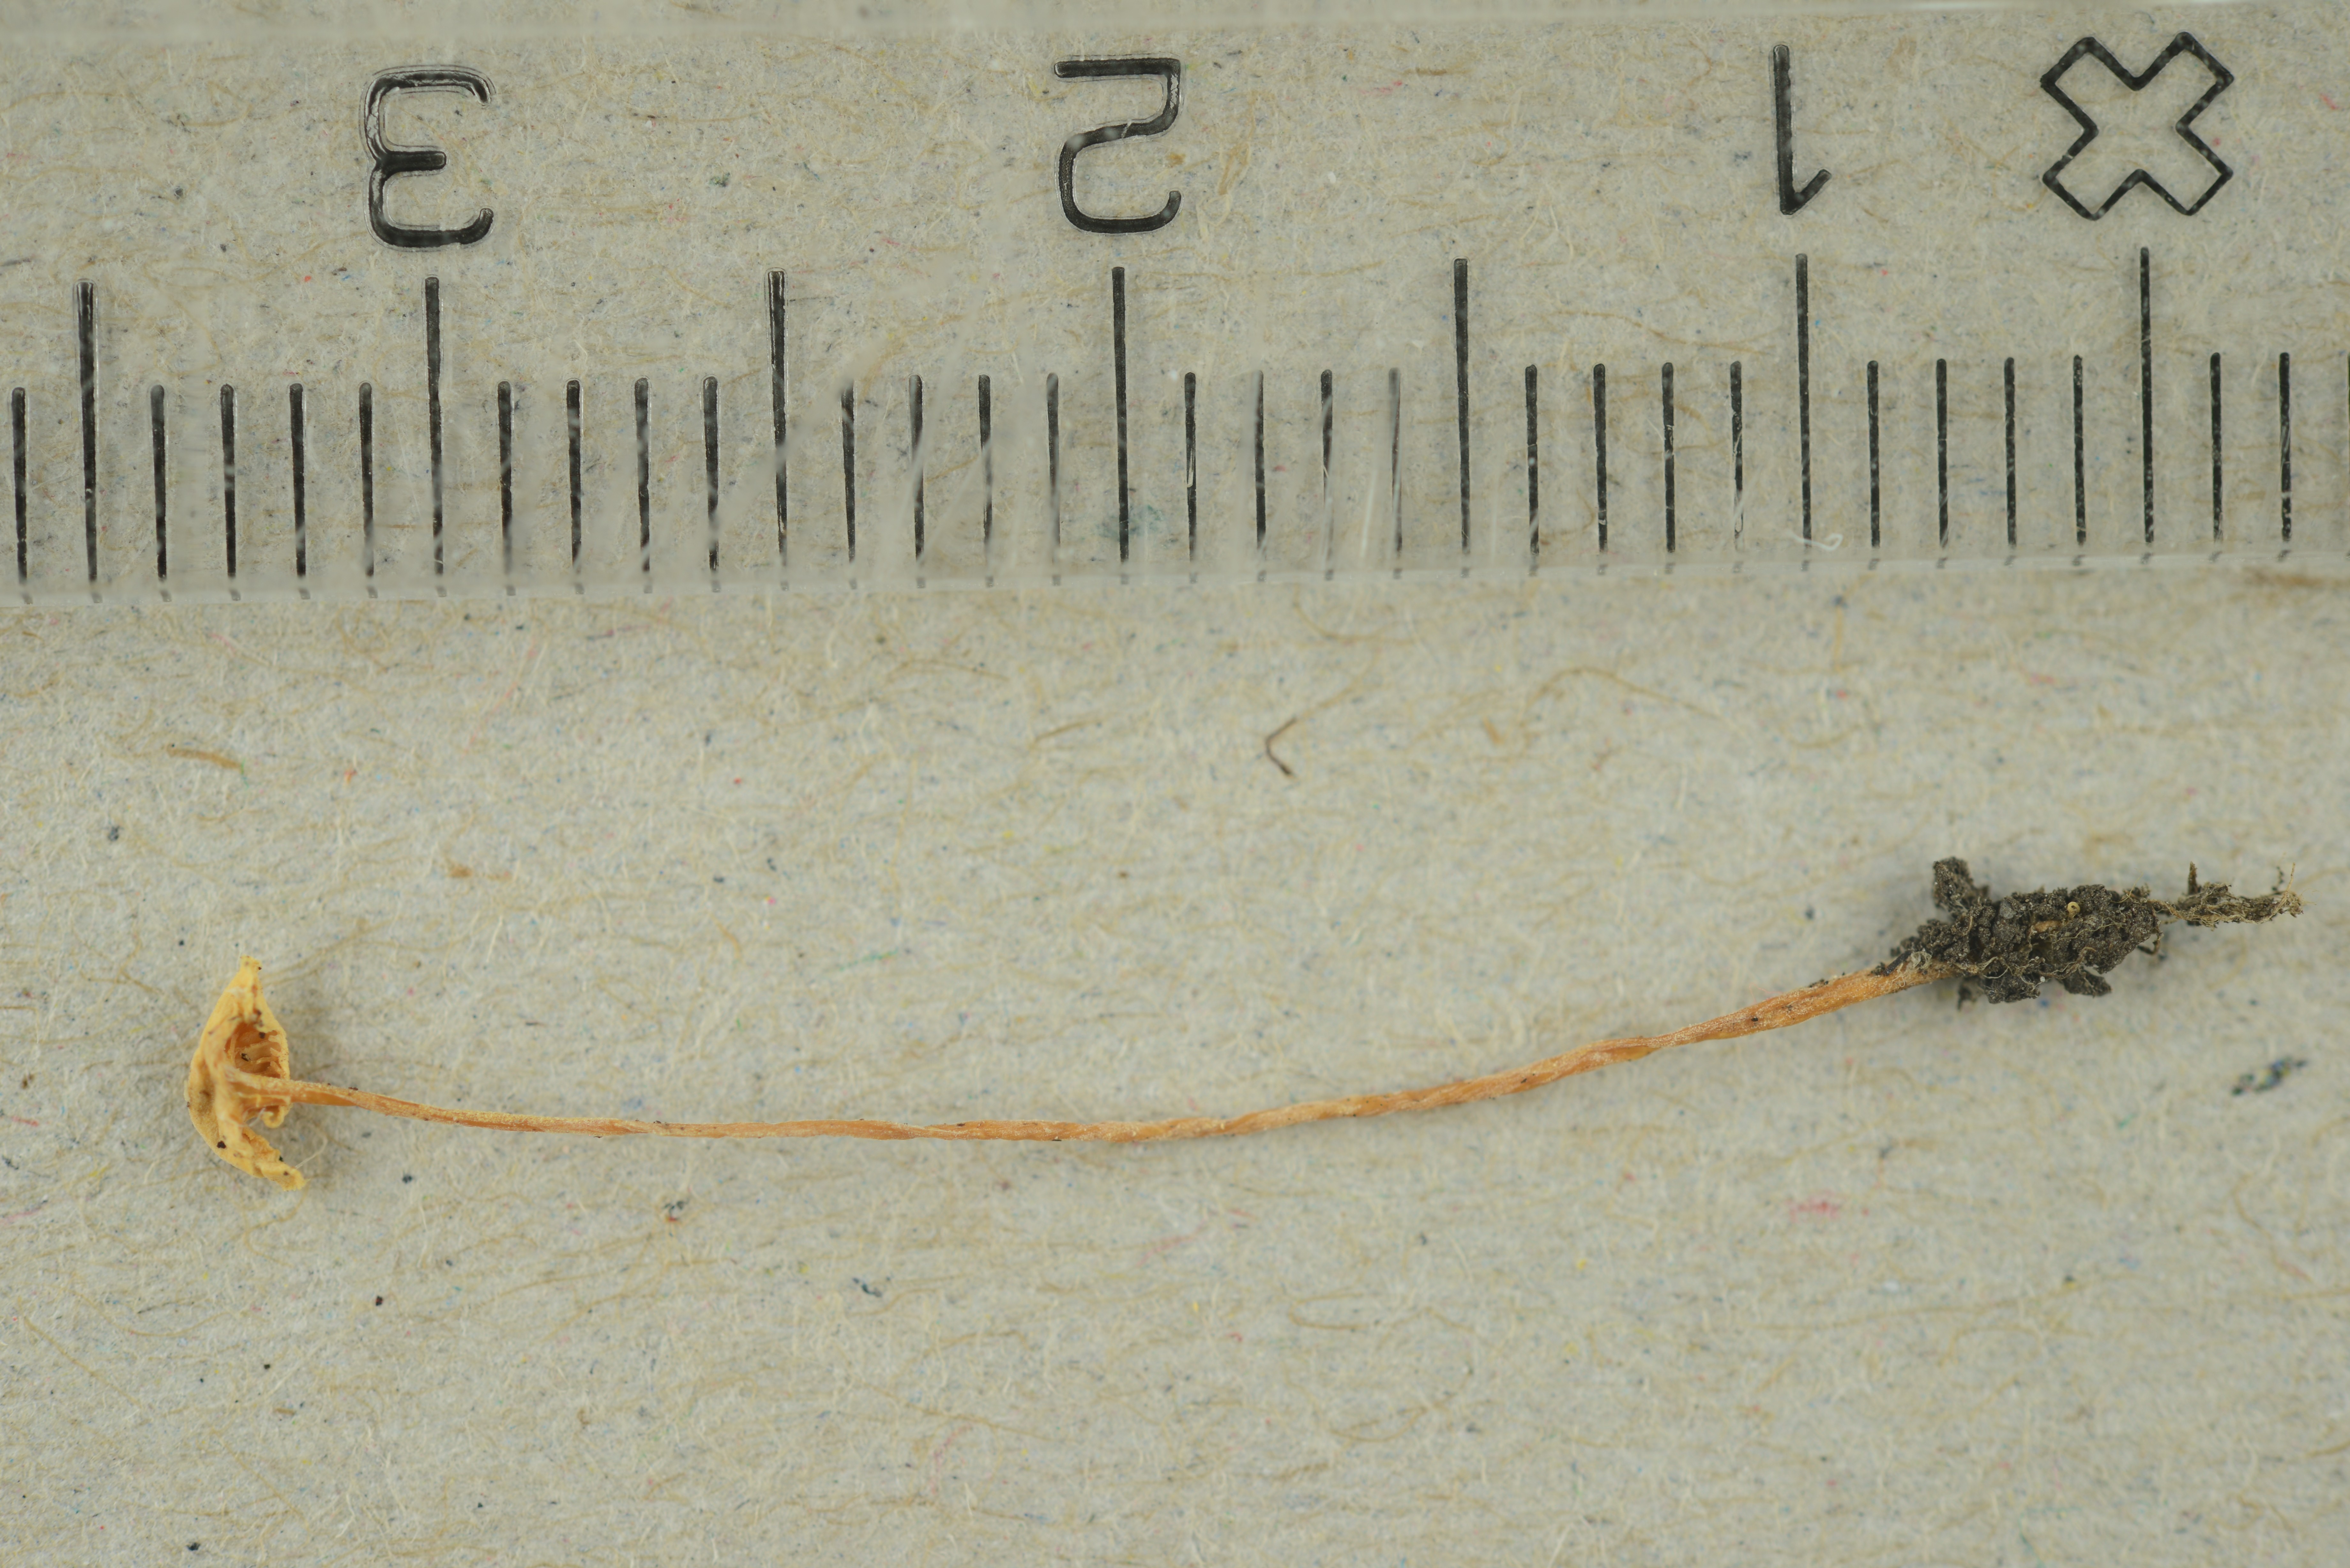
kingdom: Fungi
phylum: Basidiomycota
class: Agaricomycetes
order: Agaricales
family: Mycenaceae
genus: Hemimycena
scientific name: Hemimycena cucullata
